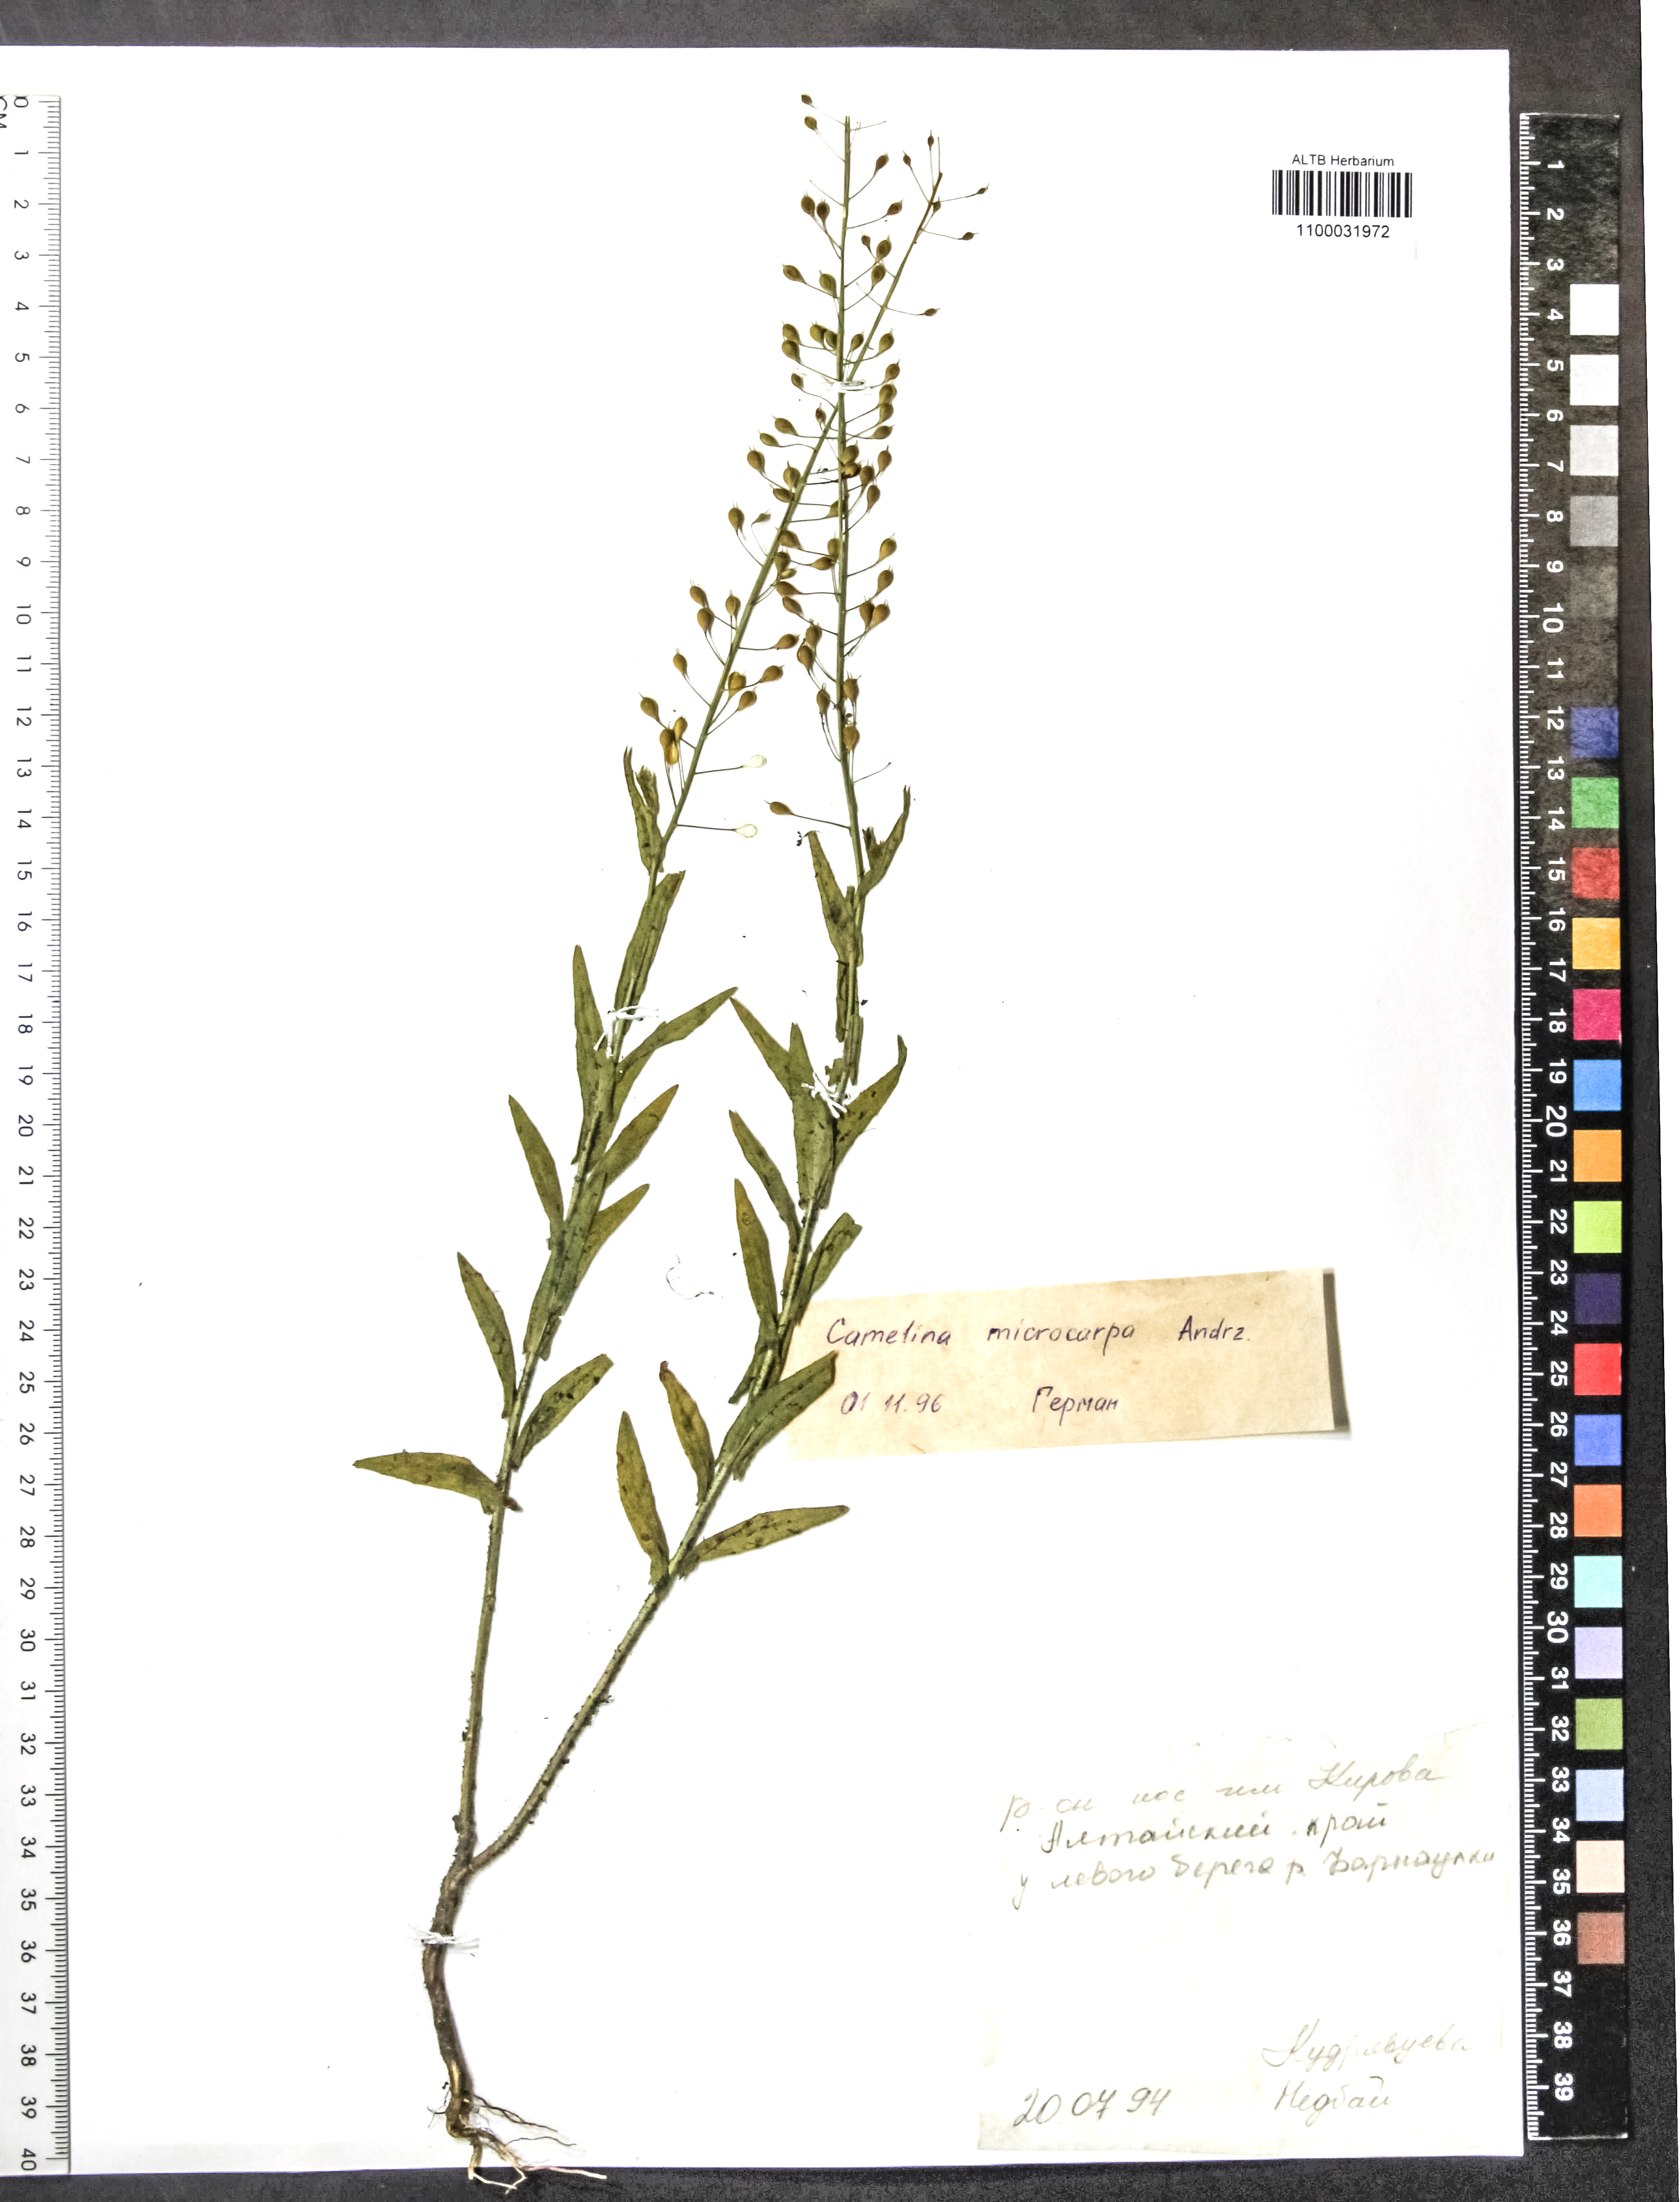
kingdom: Plantae
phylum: Tracheophyta
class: Magnoliopsida
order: Brassicales
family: Brassicaceae
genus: Camelina
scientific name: Camelina microcarpa
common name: Lesser gold-of-pleasure
